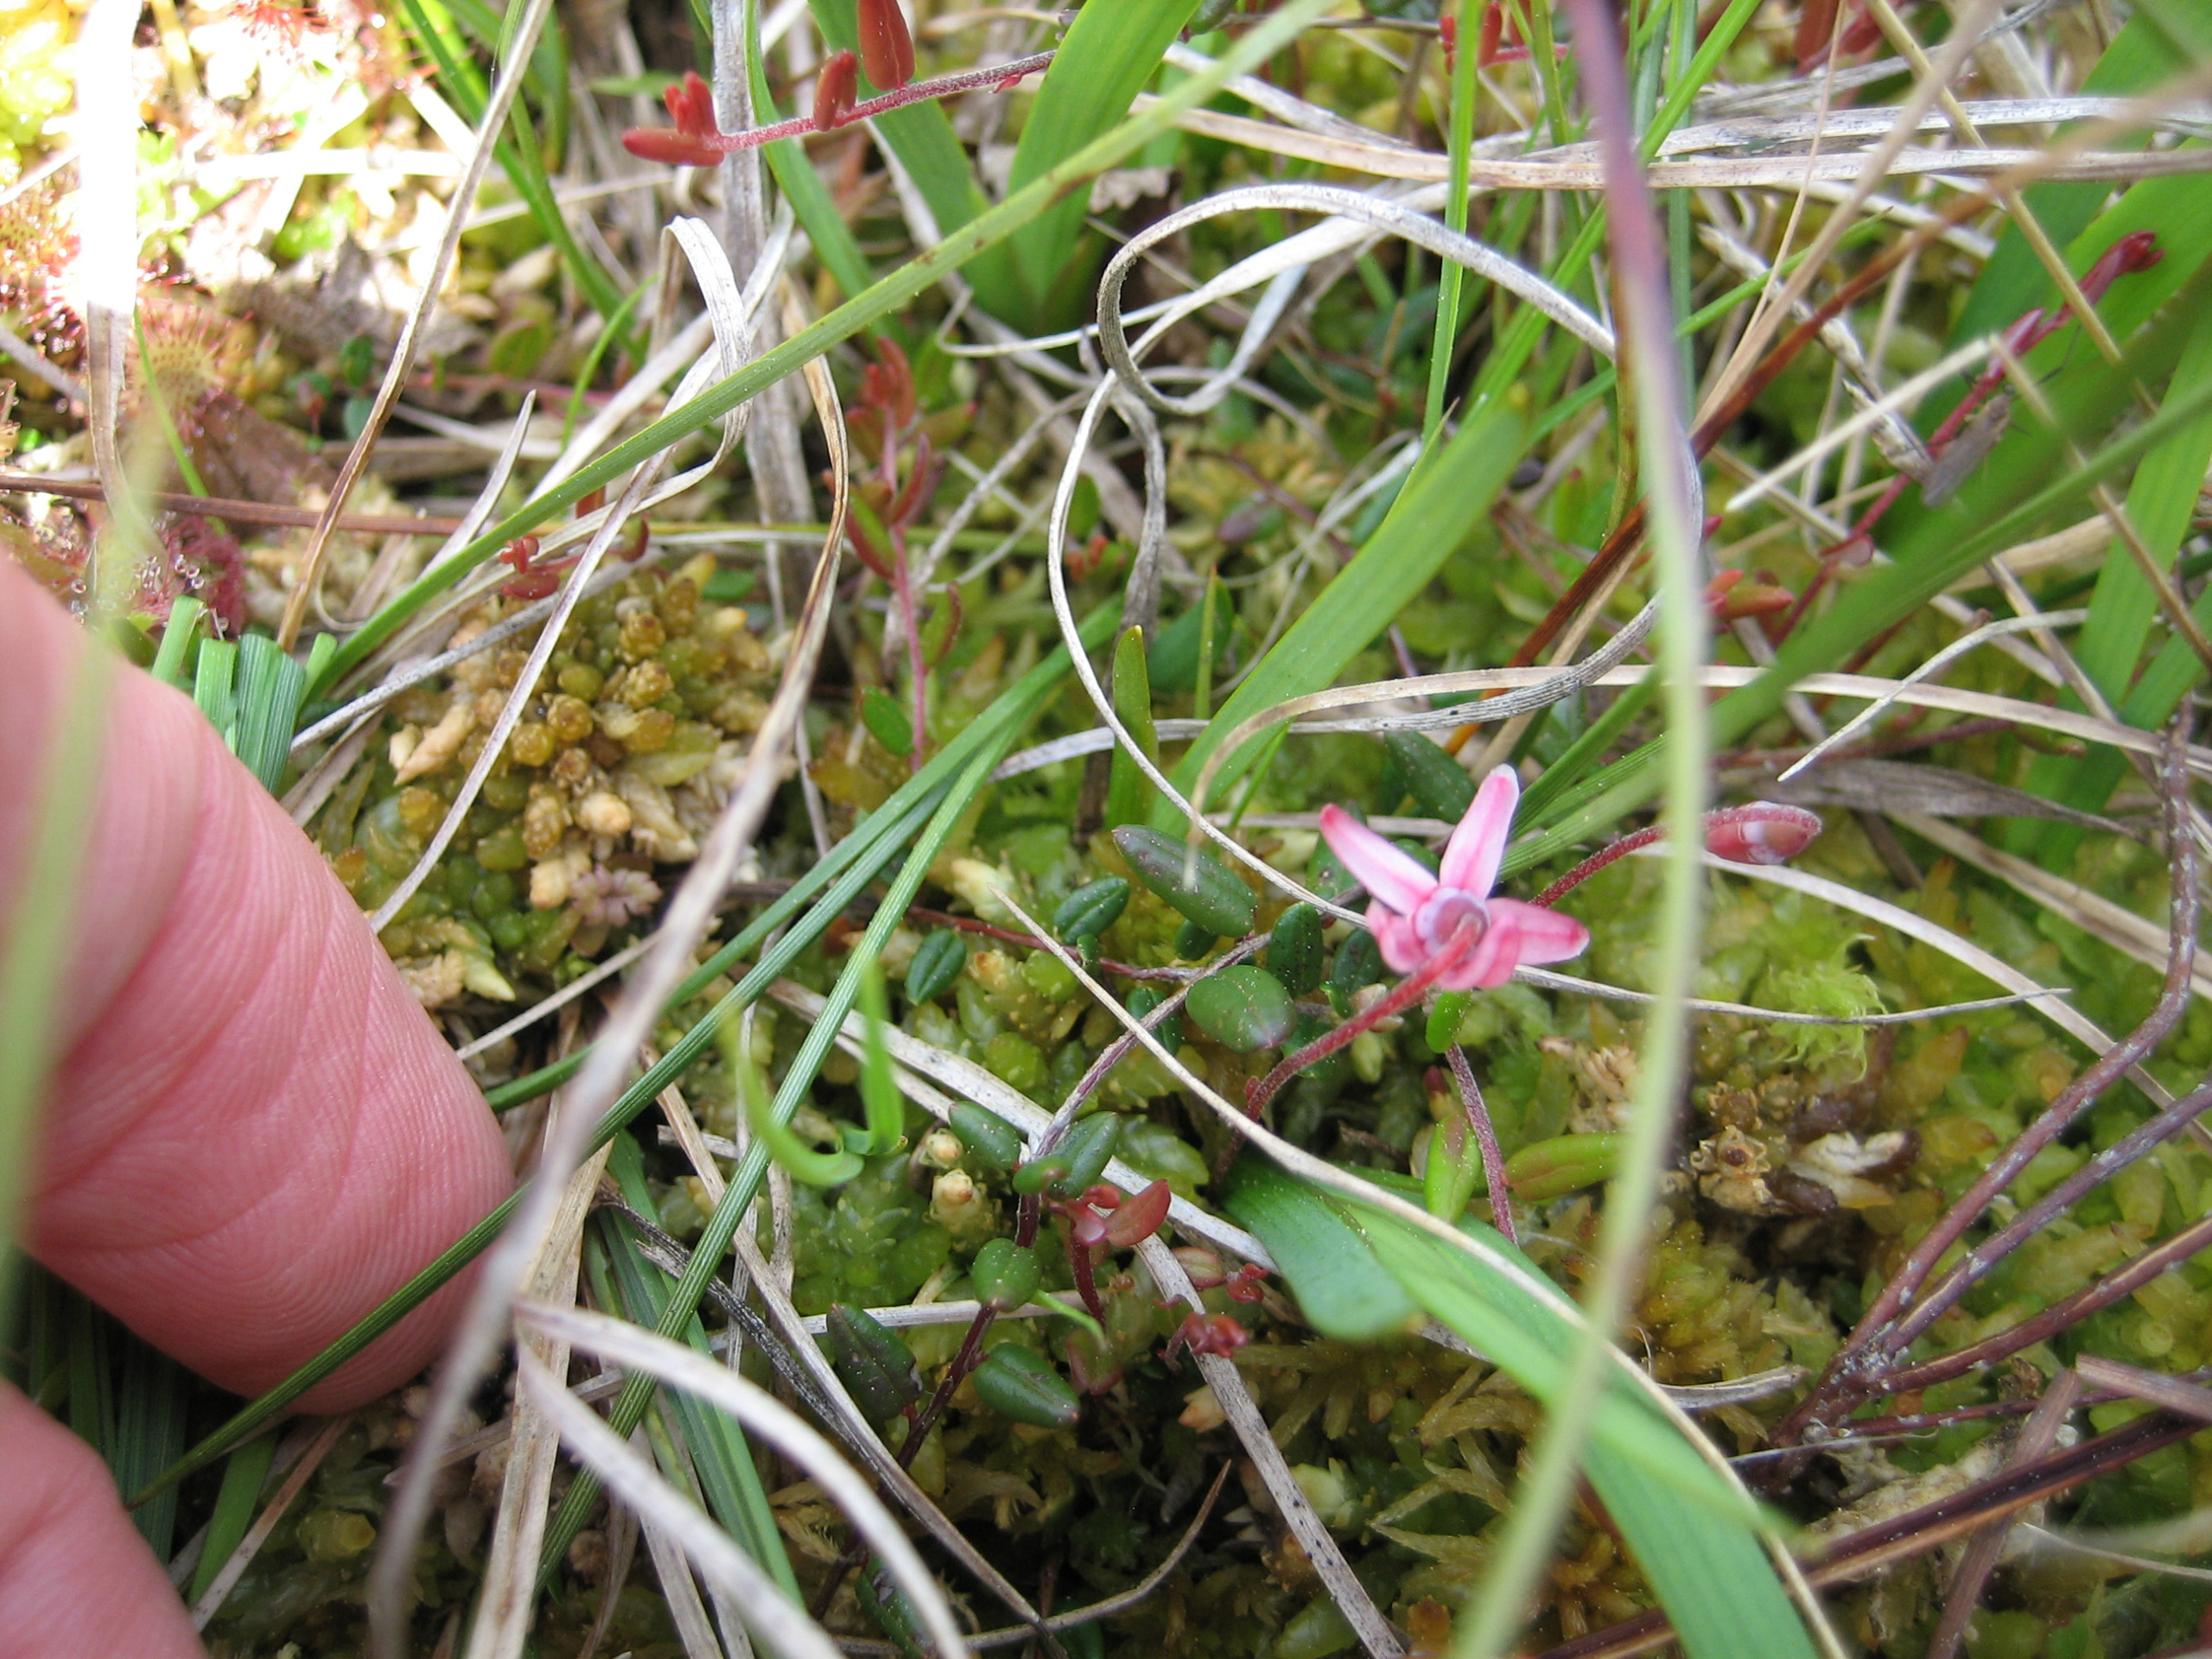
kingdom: Plantae
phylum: Tracheophyta
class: Magnoliopsida
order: Ericales
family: Ericaceae
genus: Vaccinium
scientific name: Vaccinium oxycoccos
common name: Tranebær
